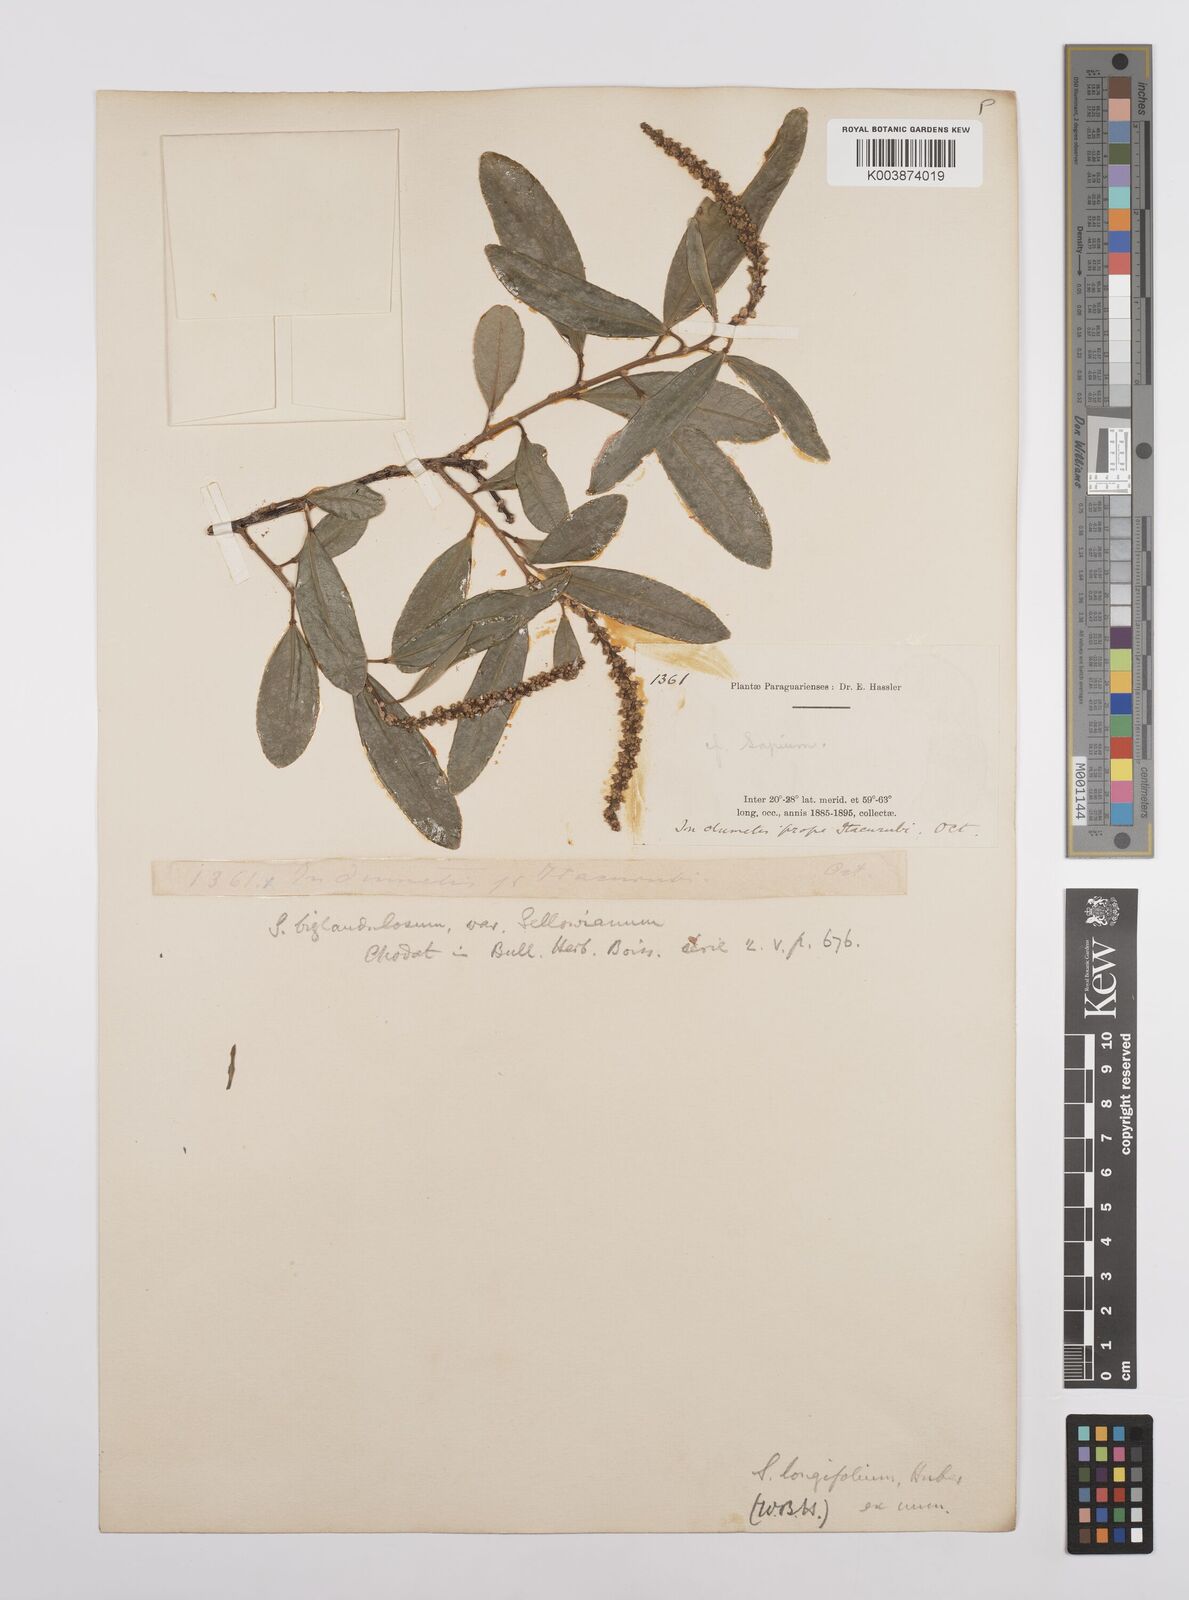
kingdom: Plantae
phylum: Tracheophyta
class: Magnoliopsida
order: Malpighiales
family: Euphorbiaceae
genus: Sapium
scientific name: Sapium haematospermum
